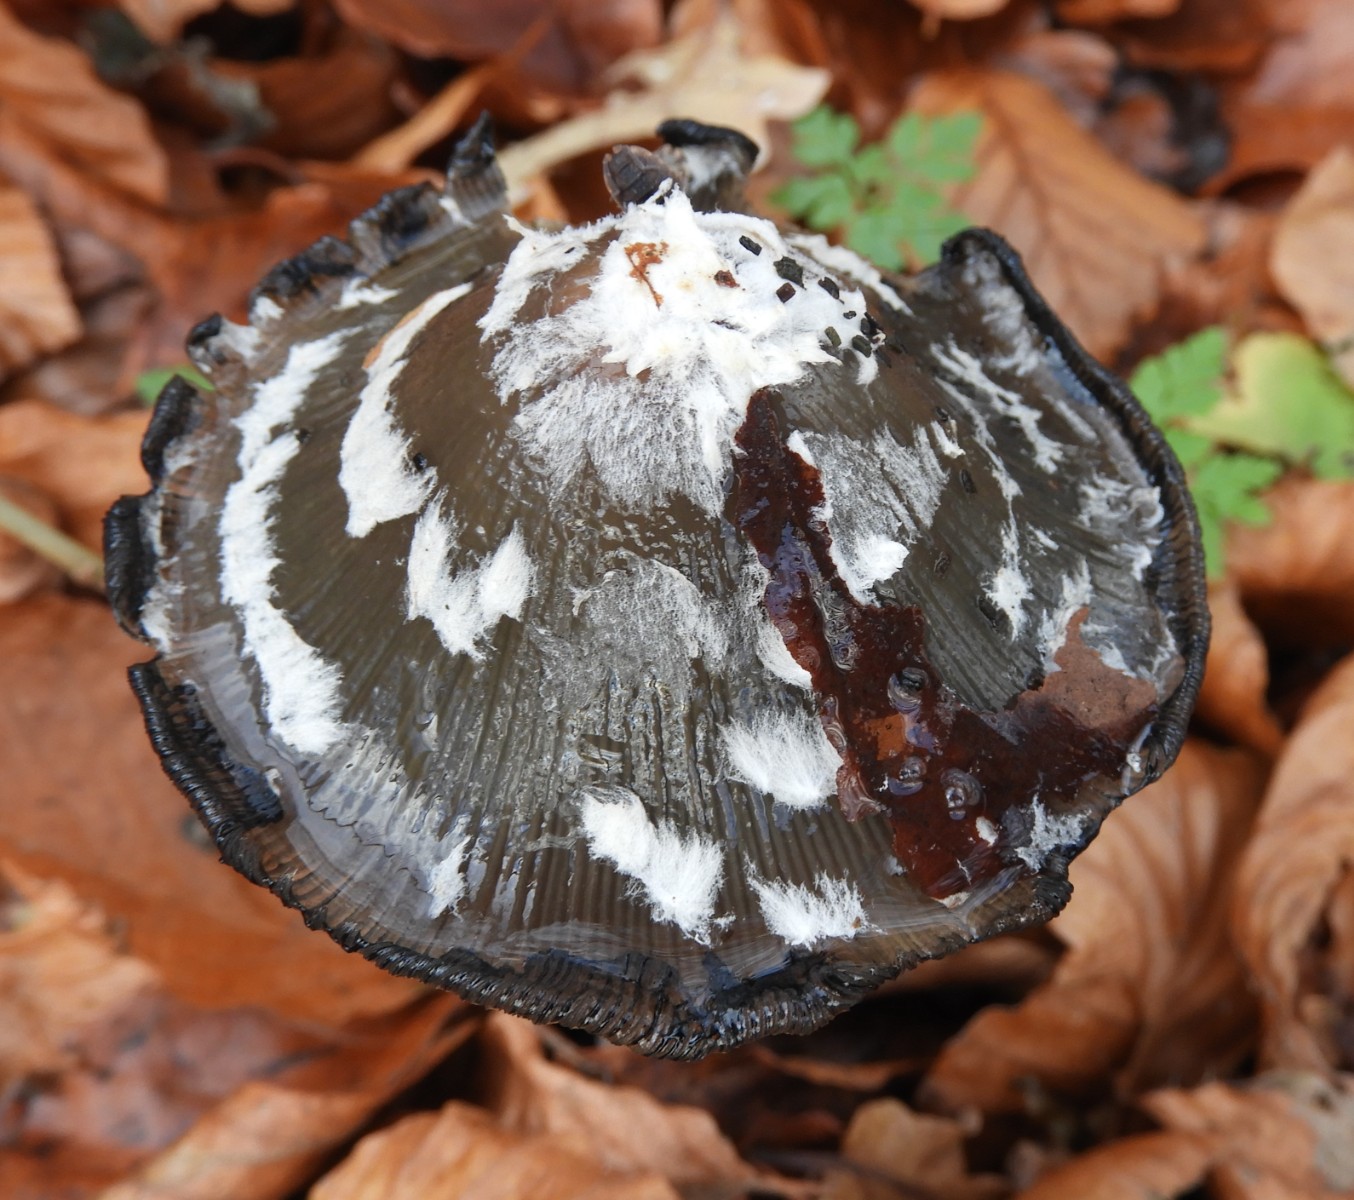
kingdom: Fungi
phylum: Basidiomycota
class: Agaricomycetes
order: Agaricales
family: Psathyrellaceae
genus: Coprinopsis
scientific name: Coprinopsis picacea
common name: skade-blækhat
